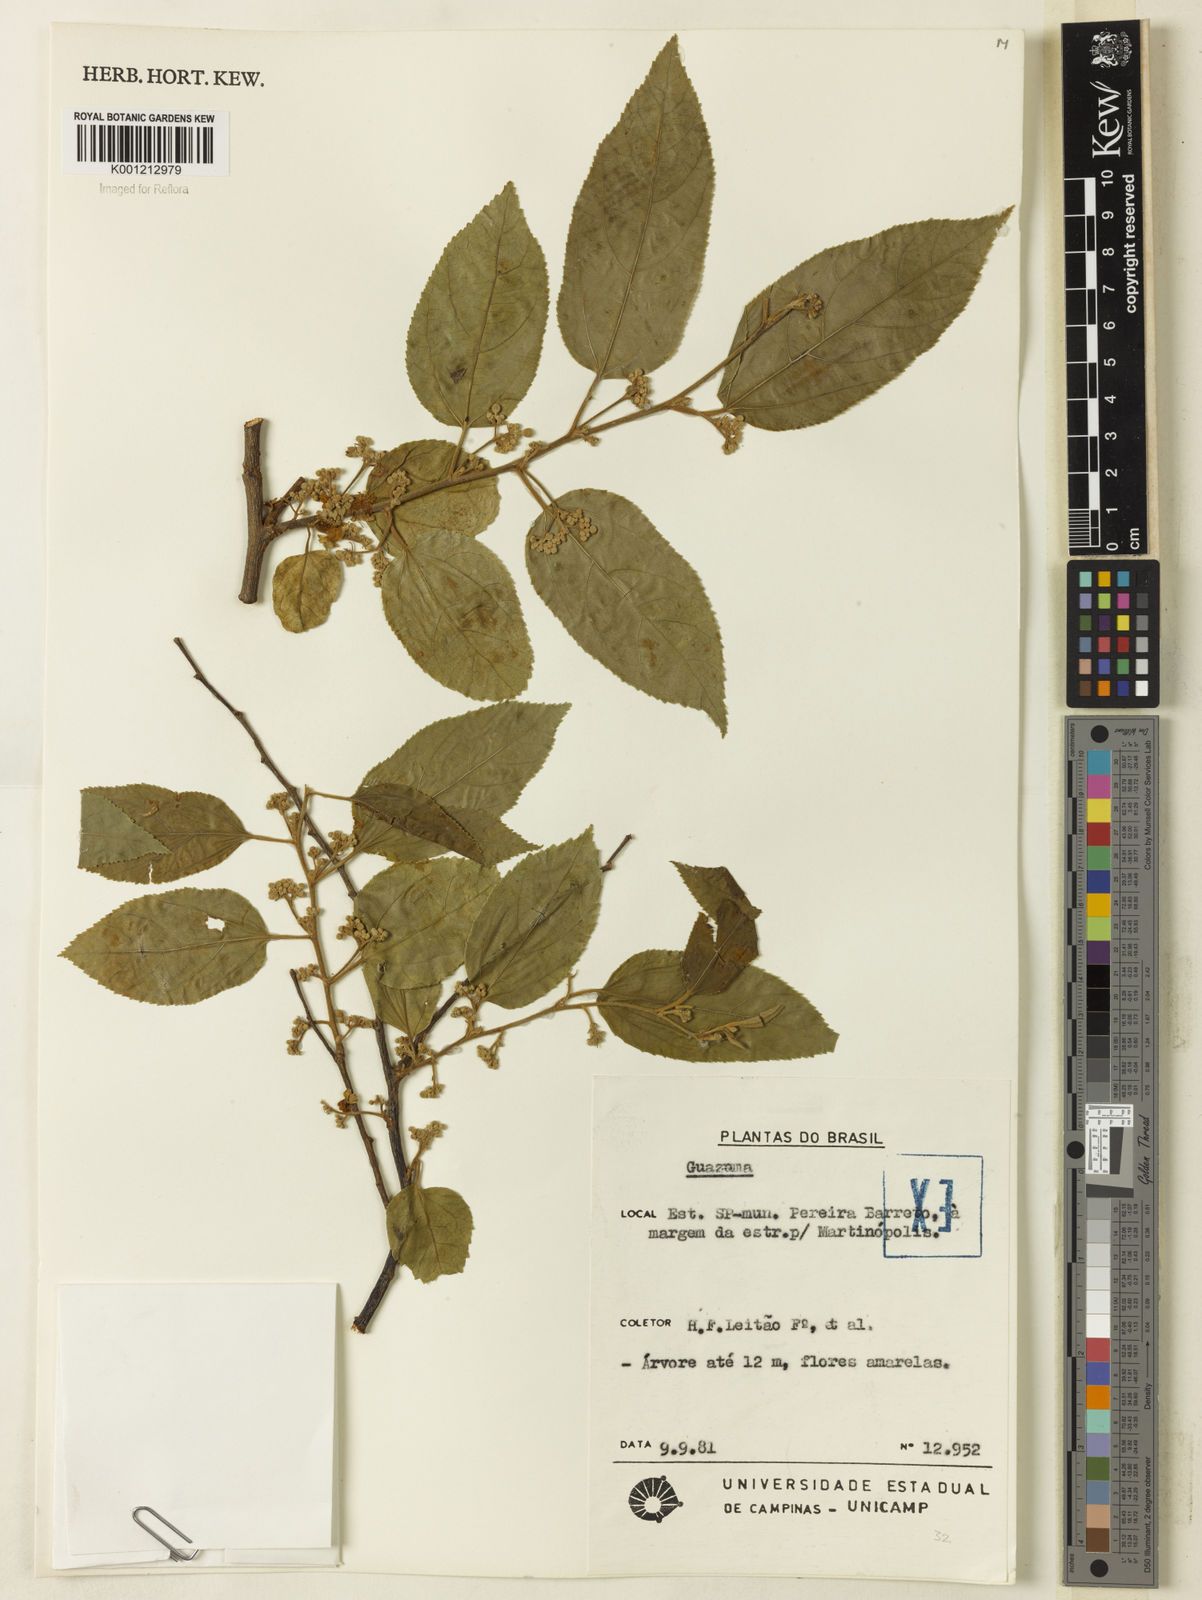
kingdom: Plantae
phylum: Tracheophyta
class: Magnoliopsida
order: Malvales
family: Malvaceae
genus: Guazuma
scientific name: Guazuma
